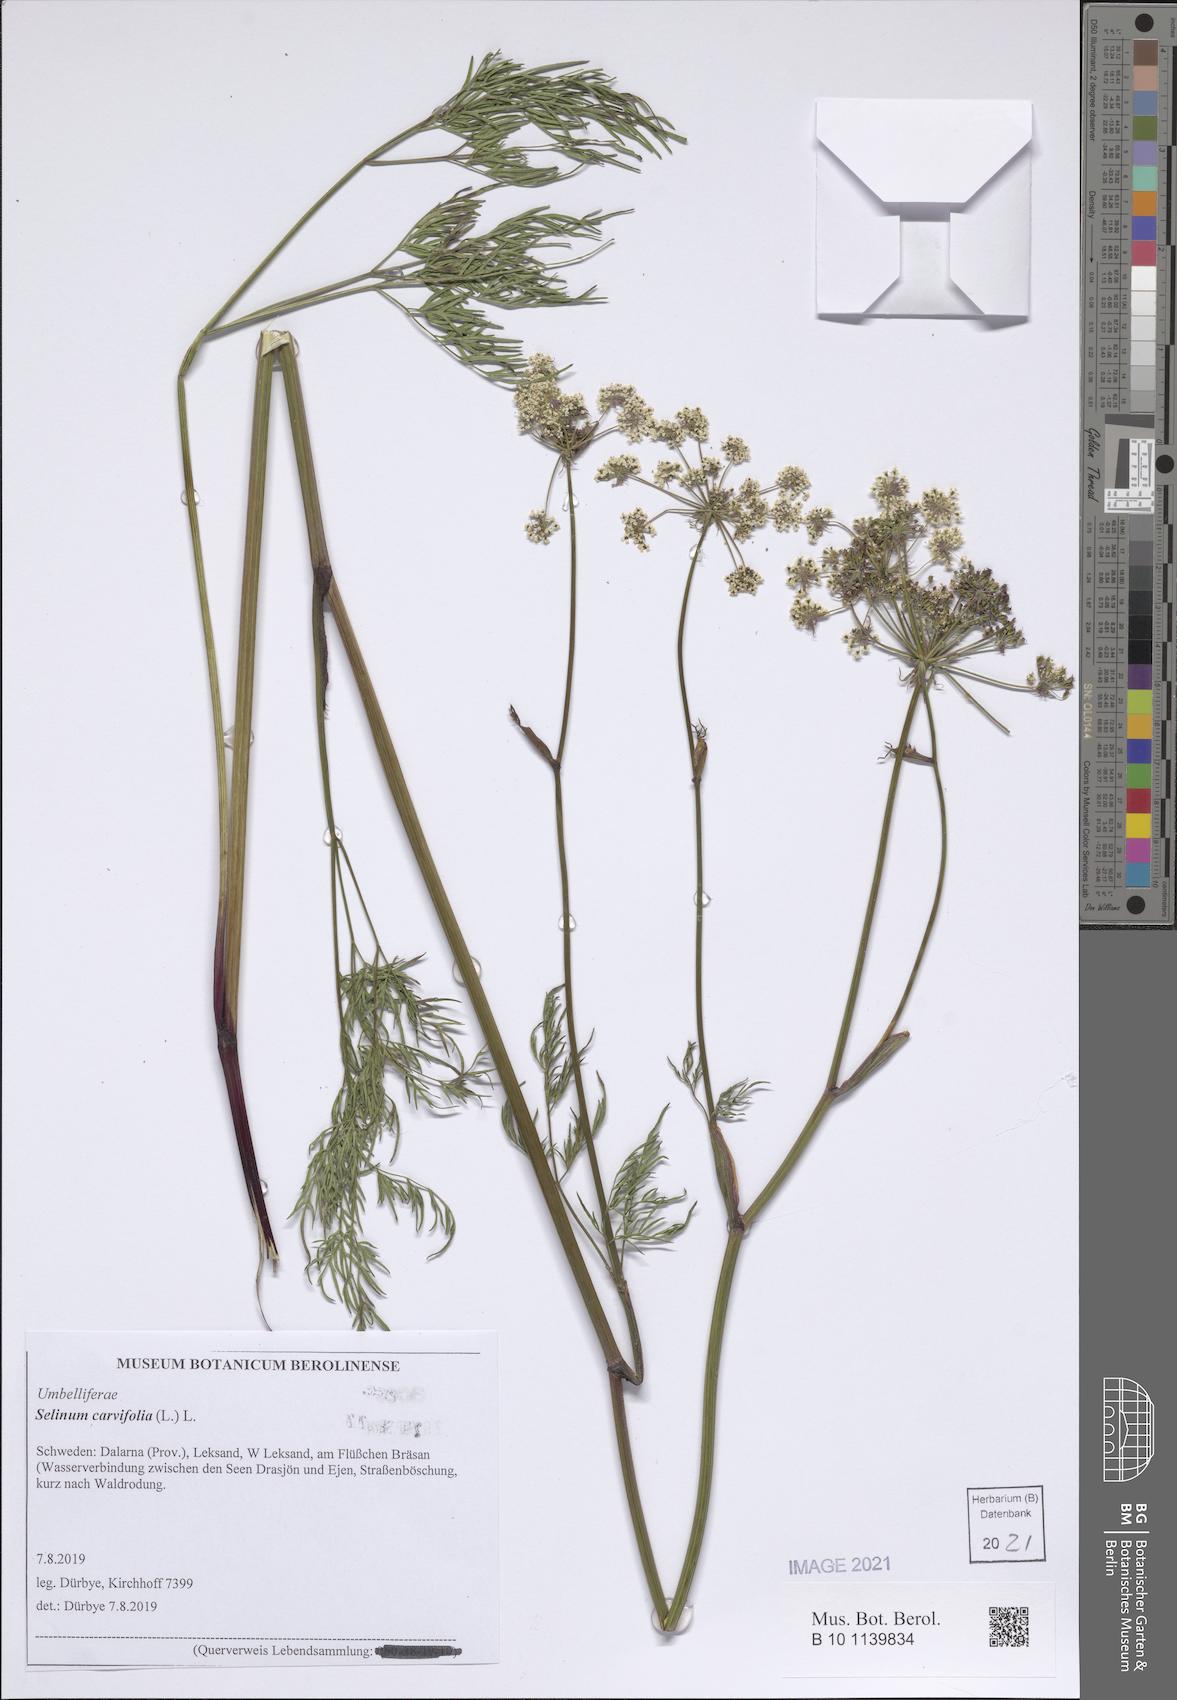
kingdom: Plantae
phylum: Tracheophyta
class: Magnoliopsida
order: Apiales
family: Apiaceae
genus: Selinum
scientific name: Selinum carvifolia
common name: Cambridge milk-parsley
